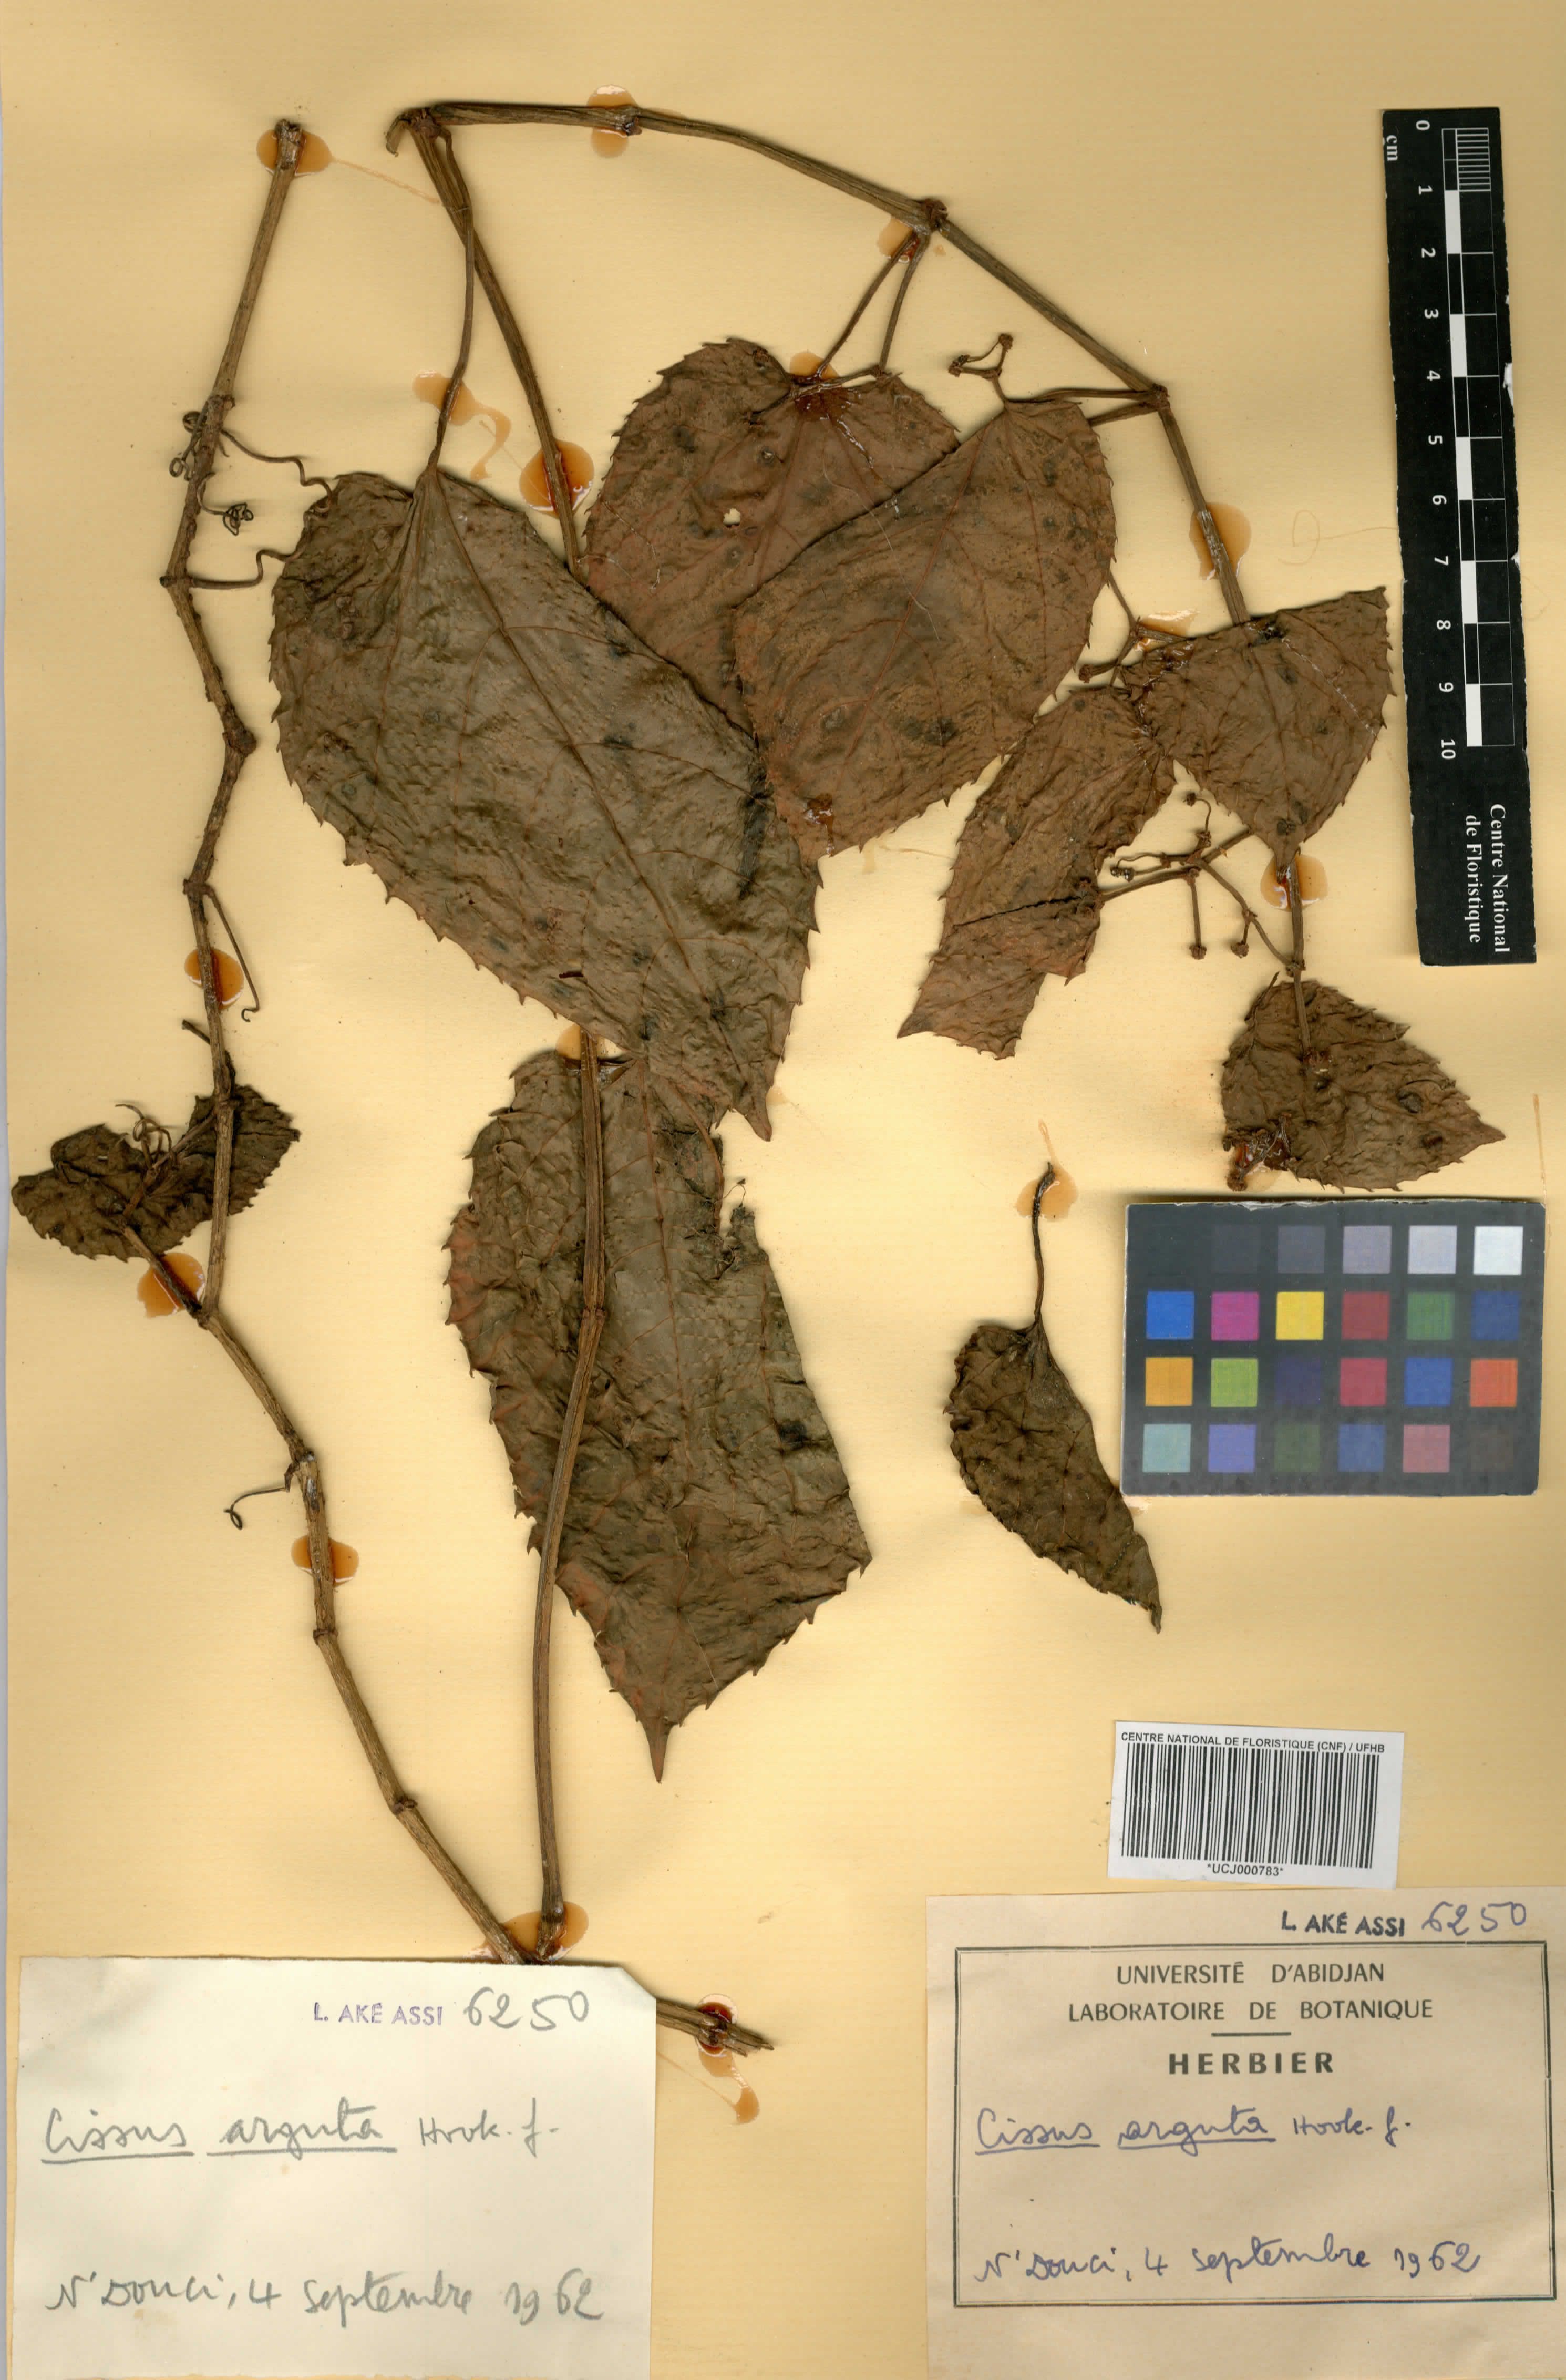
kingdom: Plantae
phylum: Tracheophyta
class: Magnoliopsida
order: Vitales
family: Vitaceae
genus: Cissus
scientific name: Cissus arguta
